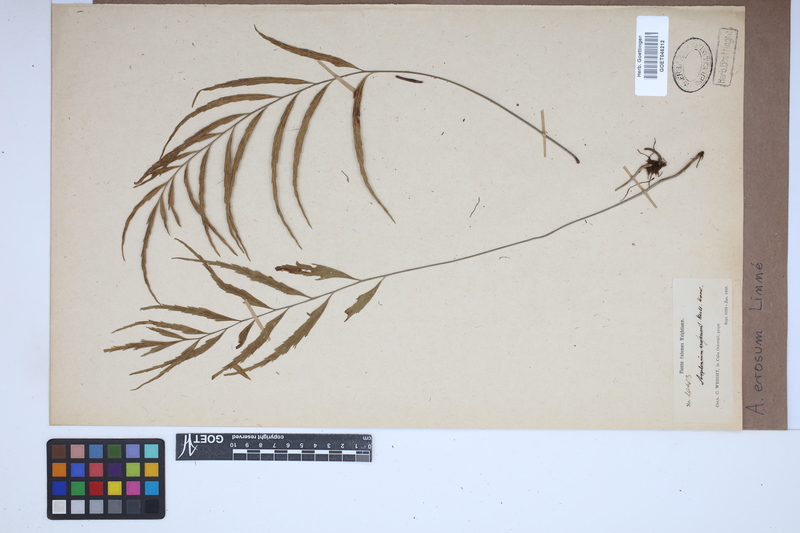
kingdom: Plantae
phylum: Tracheophyta
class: Polypodiopsida
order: Polypodiales
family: Aspleniaceae
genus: Asplenium
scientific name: Asplenium erosum
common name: Eared spleenwort
